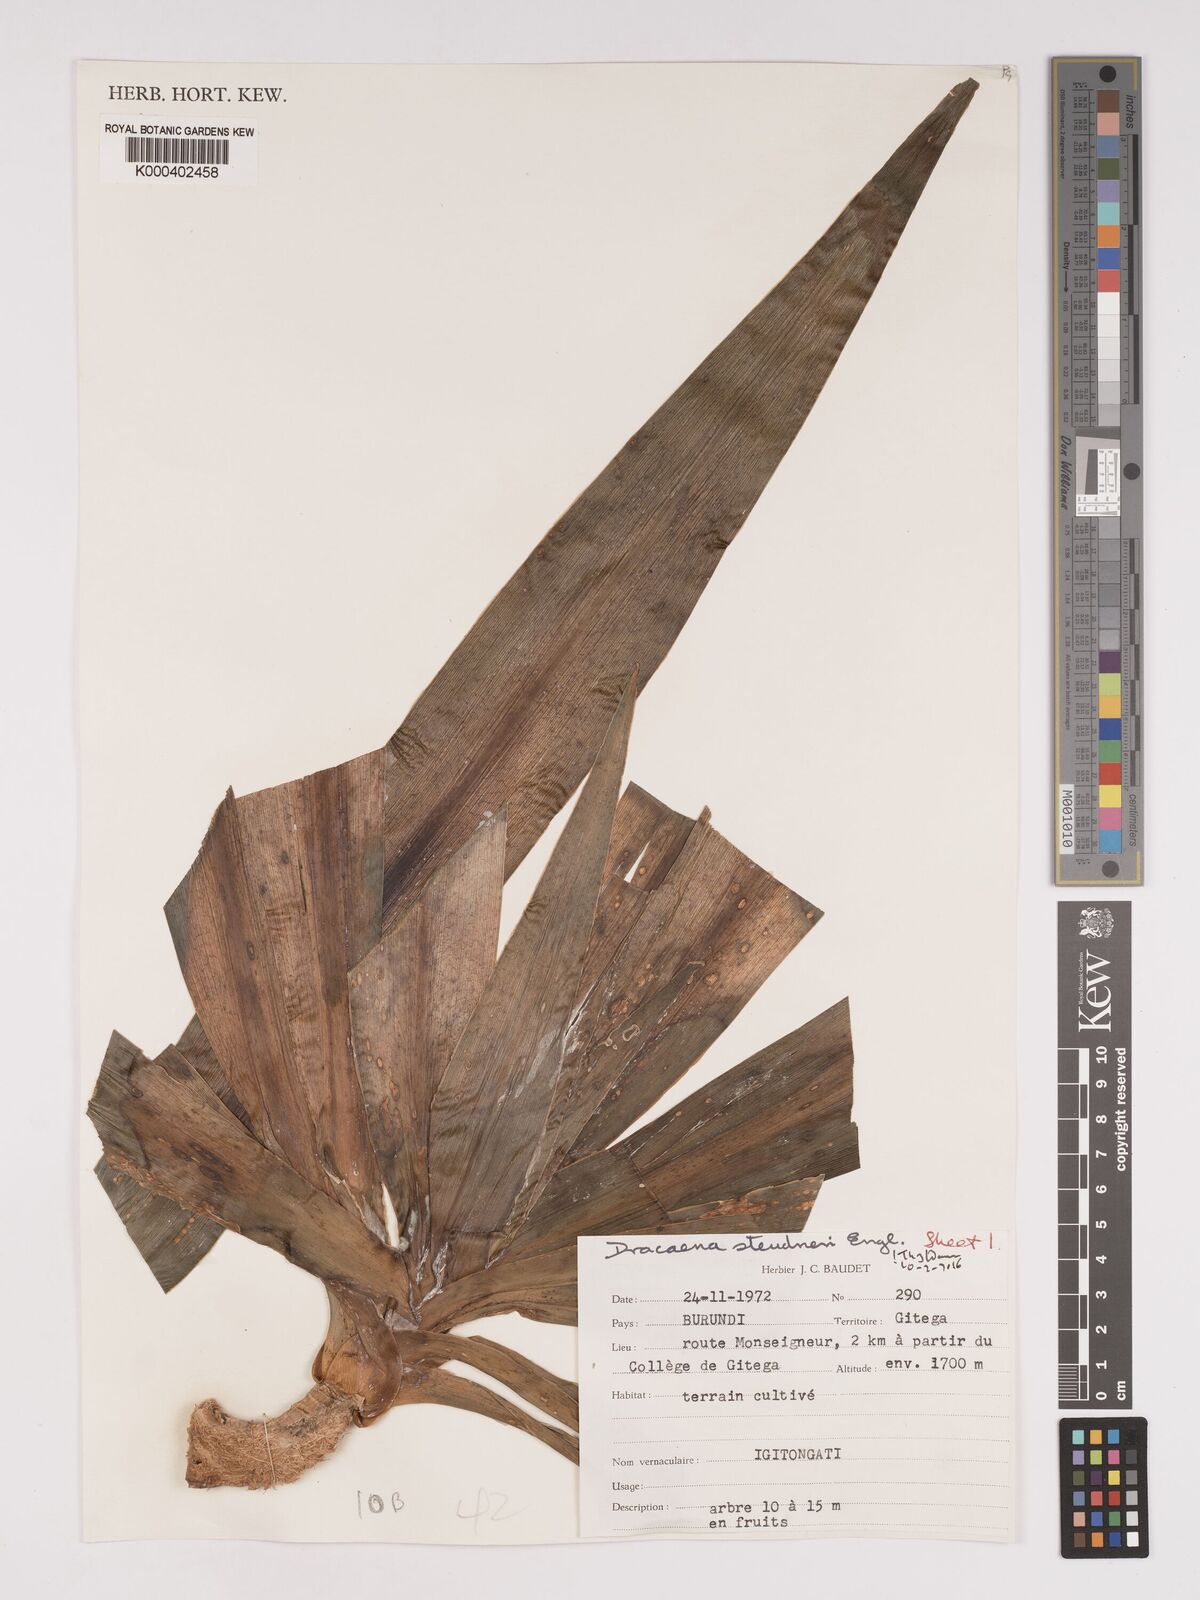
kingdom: Plantae
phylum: Tracheophyta
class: Liliopsida
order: Asparagales
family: Asparagaceae
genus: Dracaena
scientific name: Dracaena steudneri
